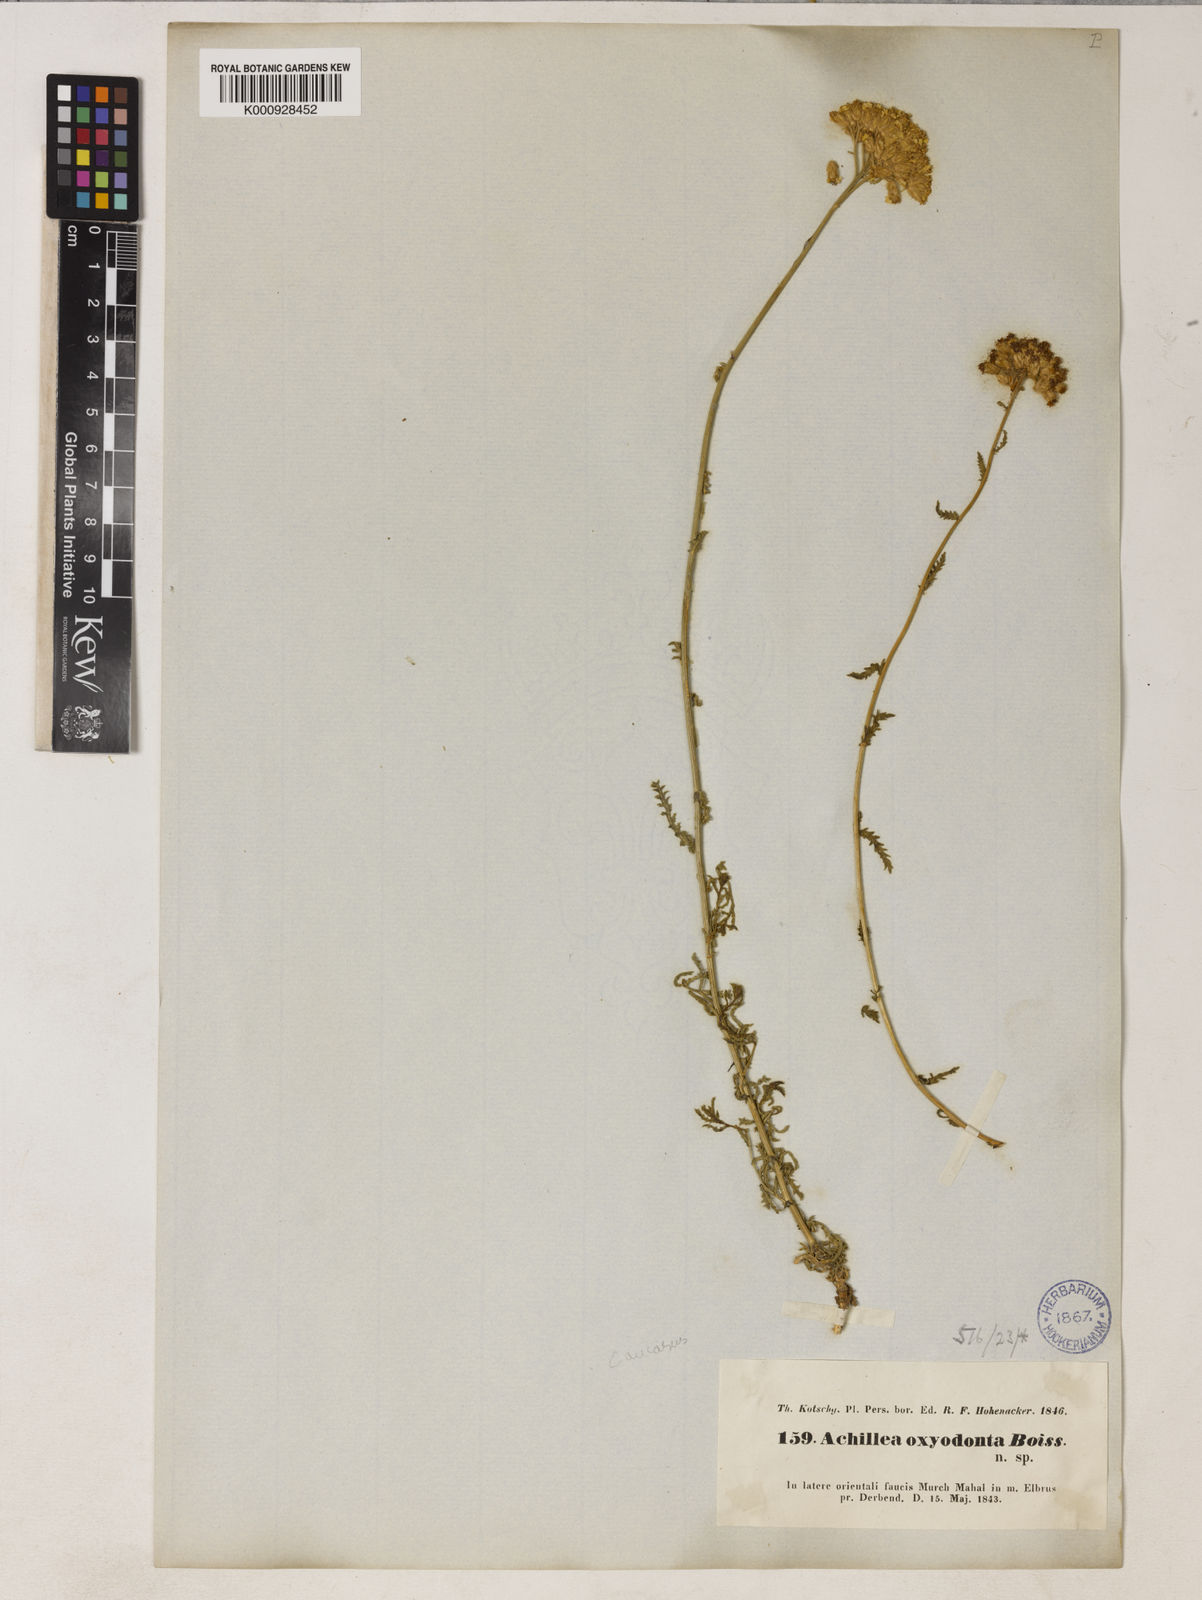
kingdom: Plantae
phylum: Tracheophyta
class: Magnoliopsida
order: Asterales
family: Asteraceae
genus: Achillea
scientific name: Achillea oxyodonta
